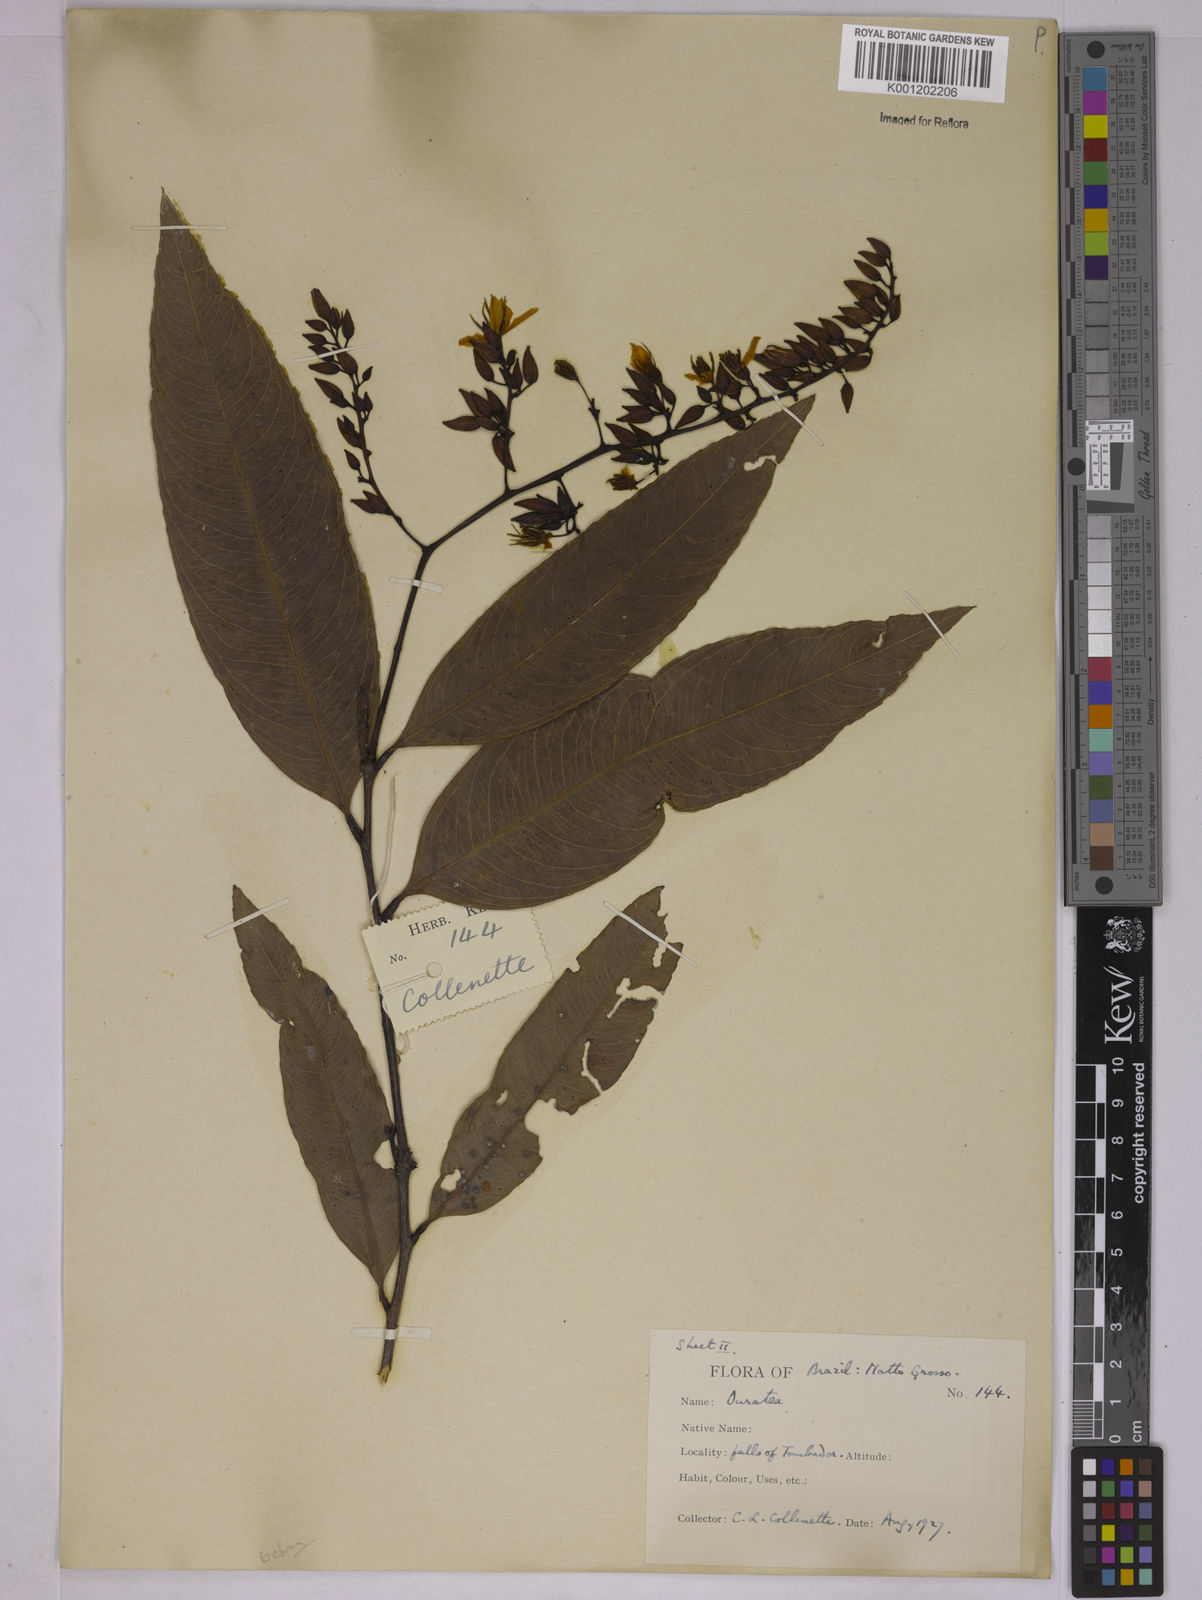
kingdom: Plantae
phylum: Tracheophyta
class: Magnoliopsida
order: Malpighiales
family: Ochnaceae
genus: Ouratea
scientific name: Ouratea
